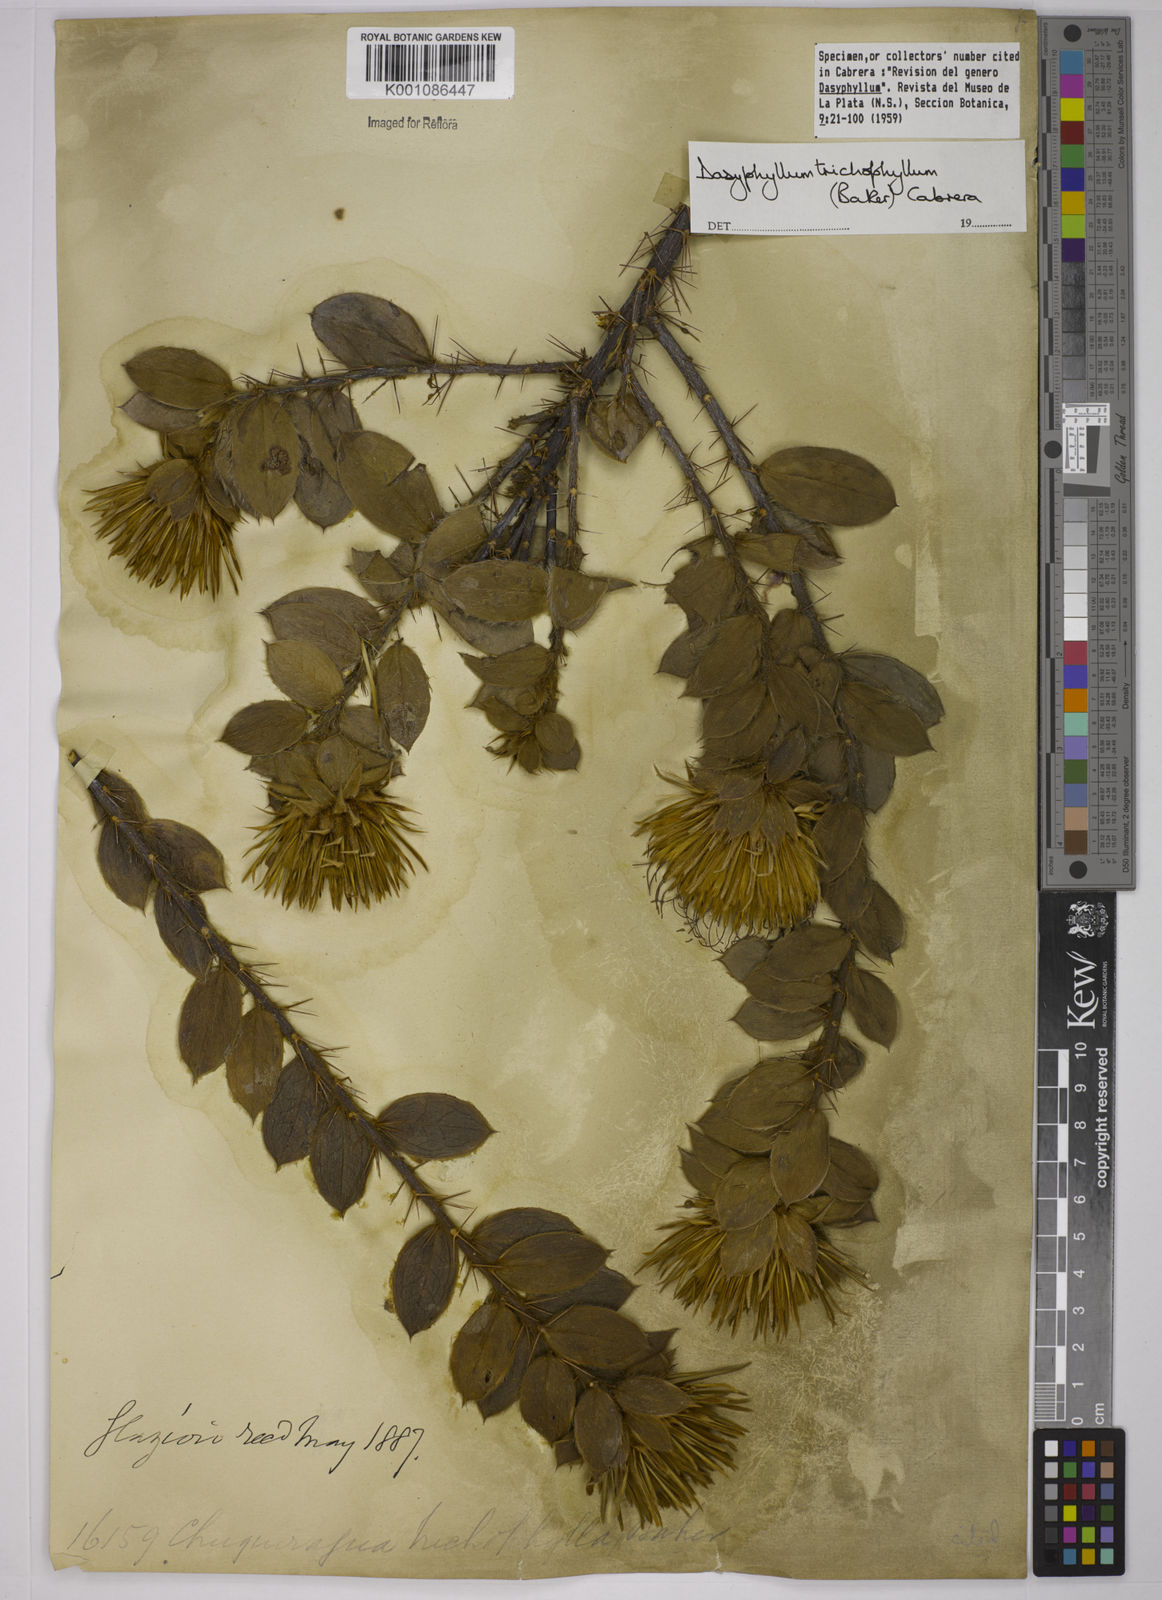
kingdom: Plantae
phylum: Tracheophyta
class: Magnoliopsida
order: Asterales
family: Asteraceae
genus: Dasyphyllum
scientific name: Dasyphyllum trichophyllum
